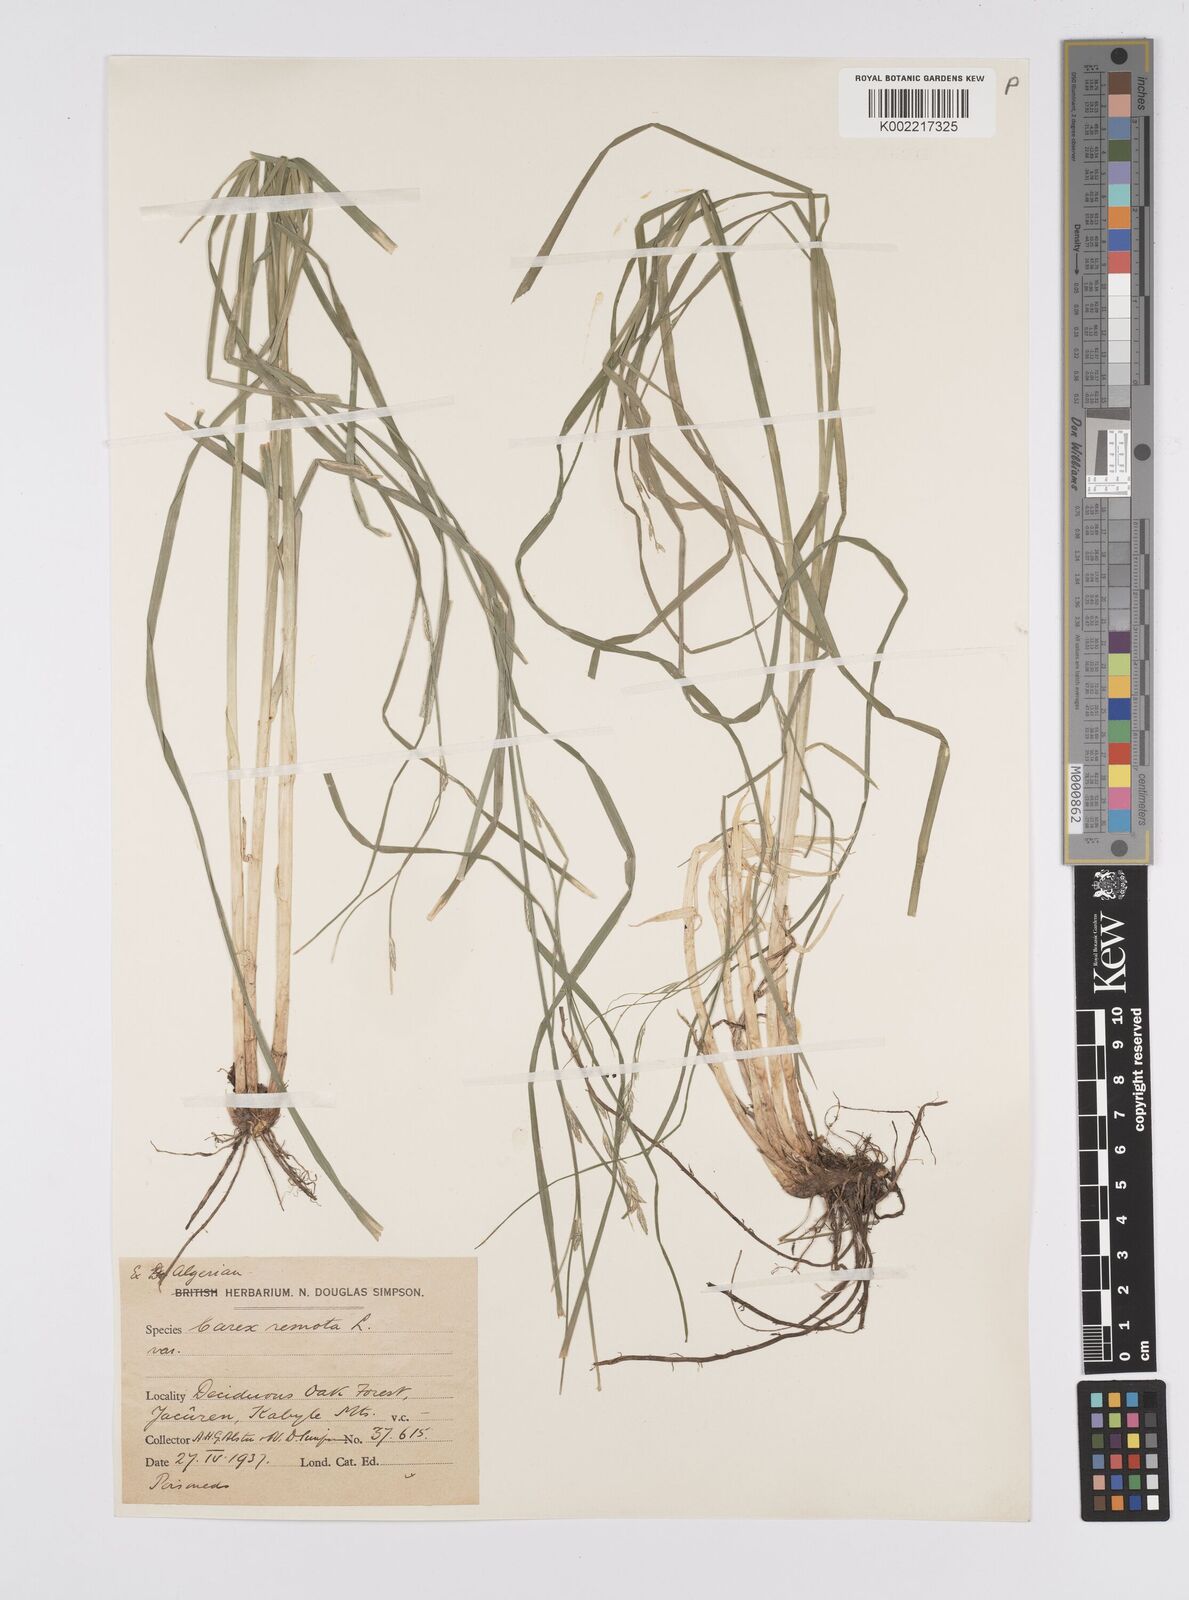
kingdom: Plantae
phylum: Tracheophyta
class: Liliopsida
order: Poales
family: Cyperaceae
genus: Carex
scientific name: Carex remota
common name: Remote sedge
